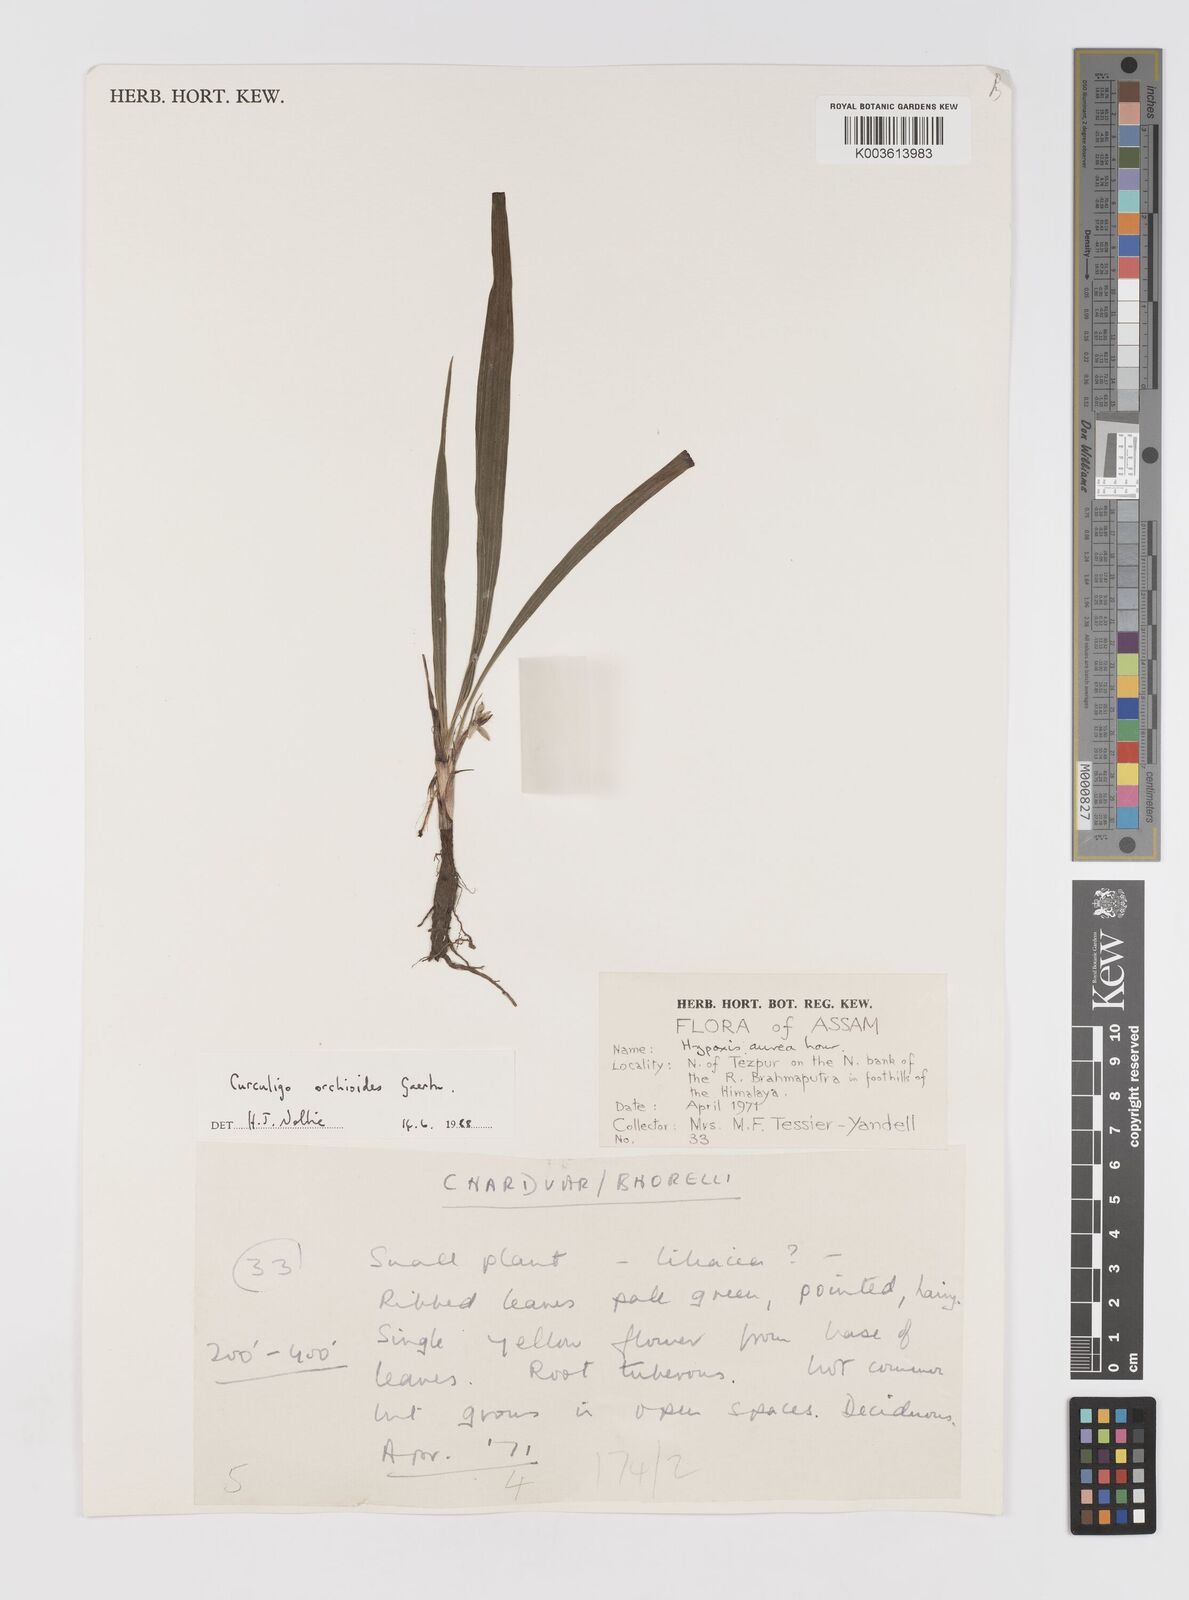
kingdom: Plantae
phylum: Tracheophyta
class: Liliopsida
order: Asparagales
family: Hypoxidaceae
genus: Curculigo
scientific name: Curculigo orchioides
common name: Golden eye-grass
